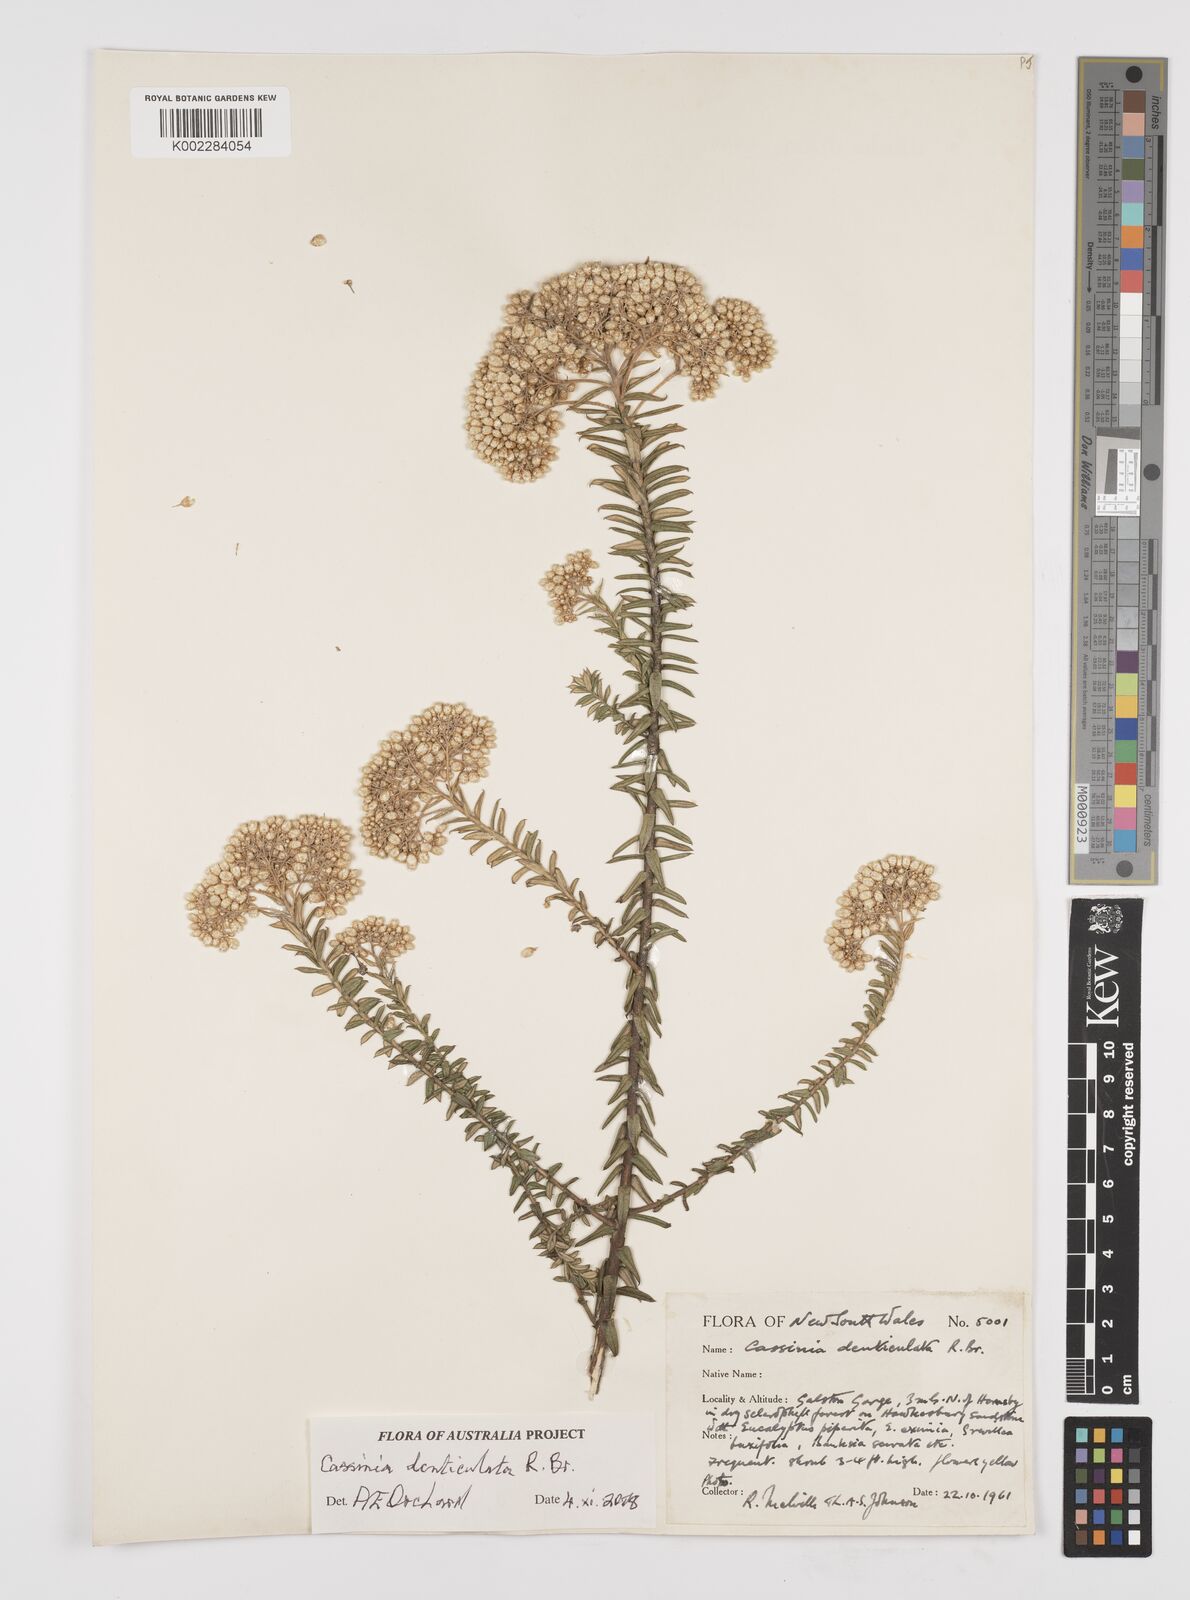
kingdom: Plantae
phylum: Tracheophyta
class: Magnoliopsida
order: Asterales
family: Asteraceae
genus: Cassinia
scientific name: Cassinia denticulata
